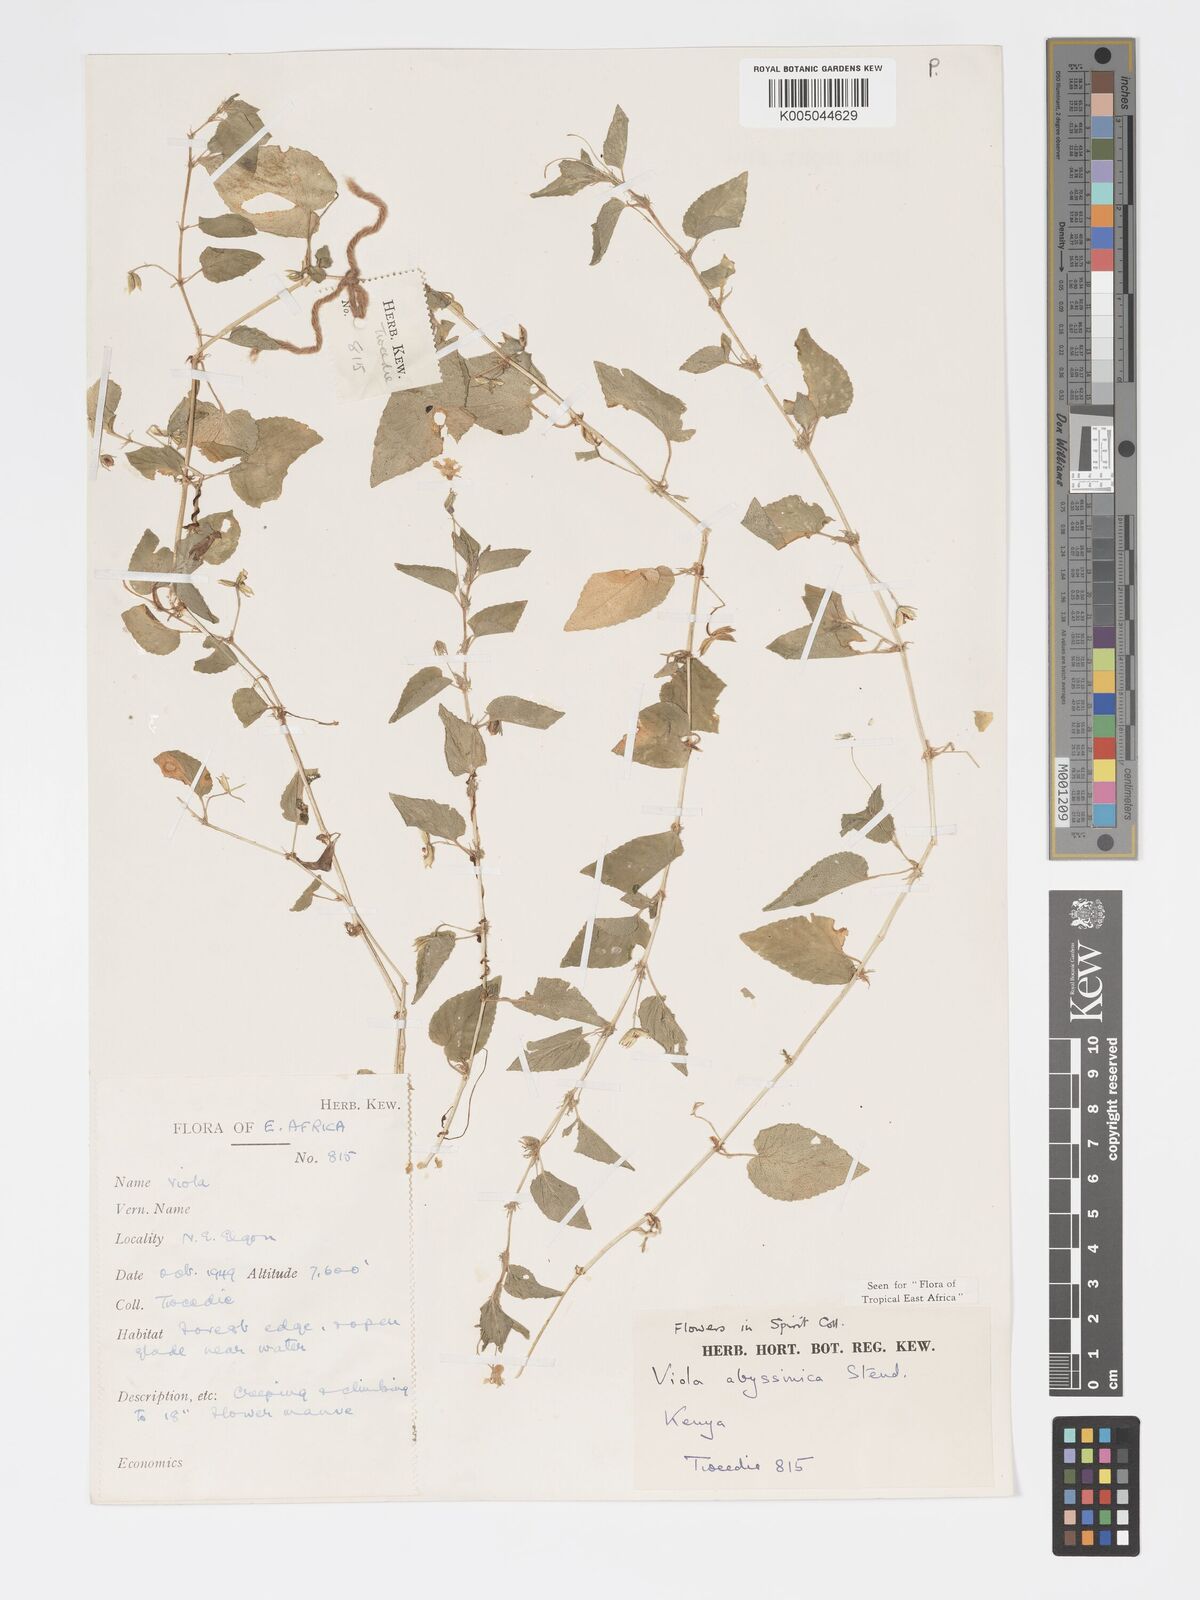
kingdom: Plantae
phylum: Tracheophyta
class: Magnoliopsida
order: Malpighiales
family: Violaceae
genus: Viola
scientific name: Viola abyssinica
